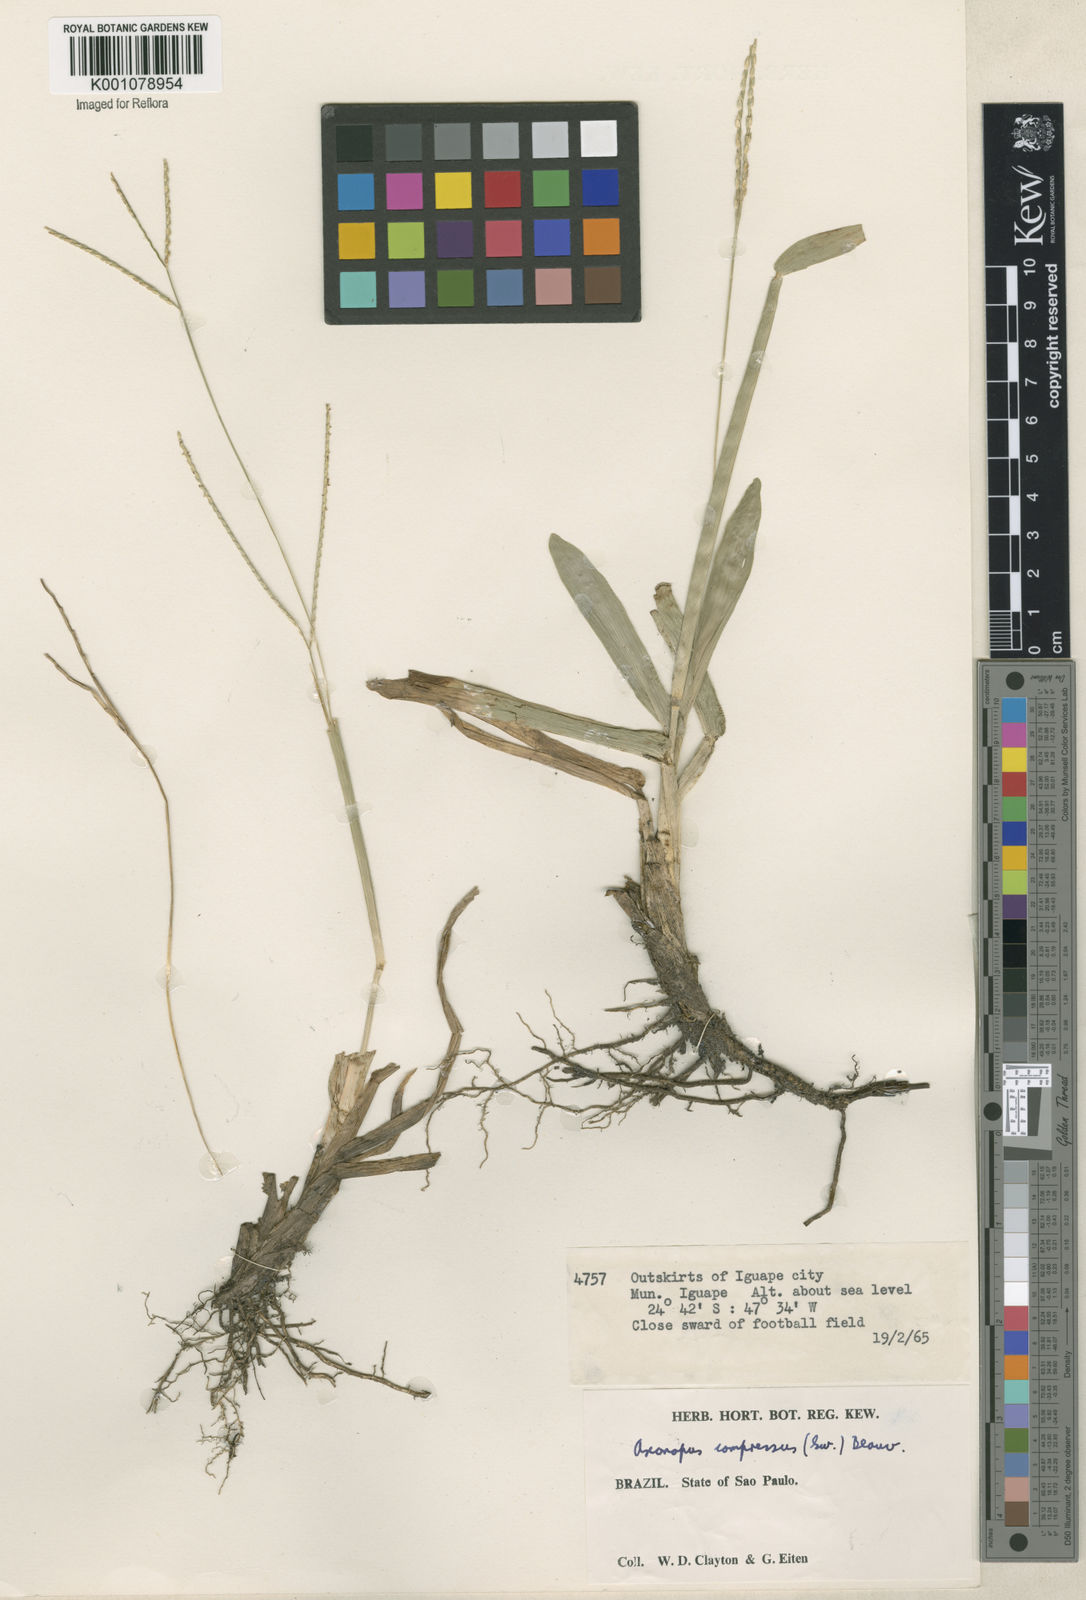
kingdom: Plantae
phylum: Tracheophyta
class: Liliopsida
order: Poales
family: Poaceae
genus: Axonopus
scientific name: Axonopus compressus
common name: American carpet grass
